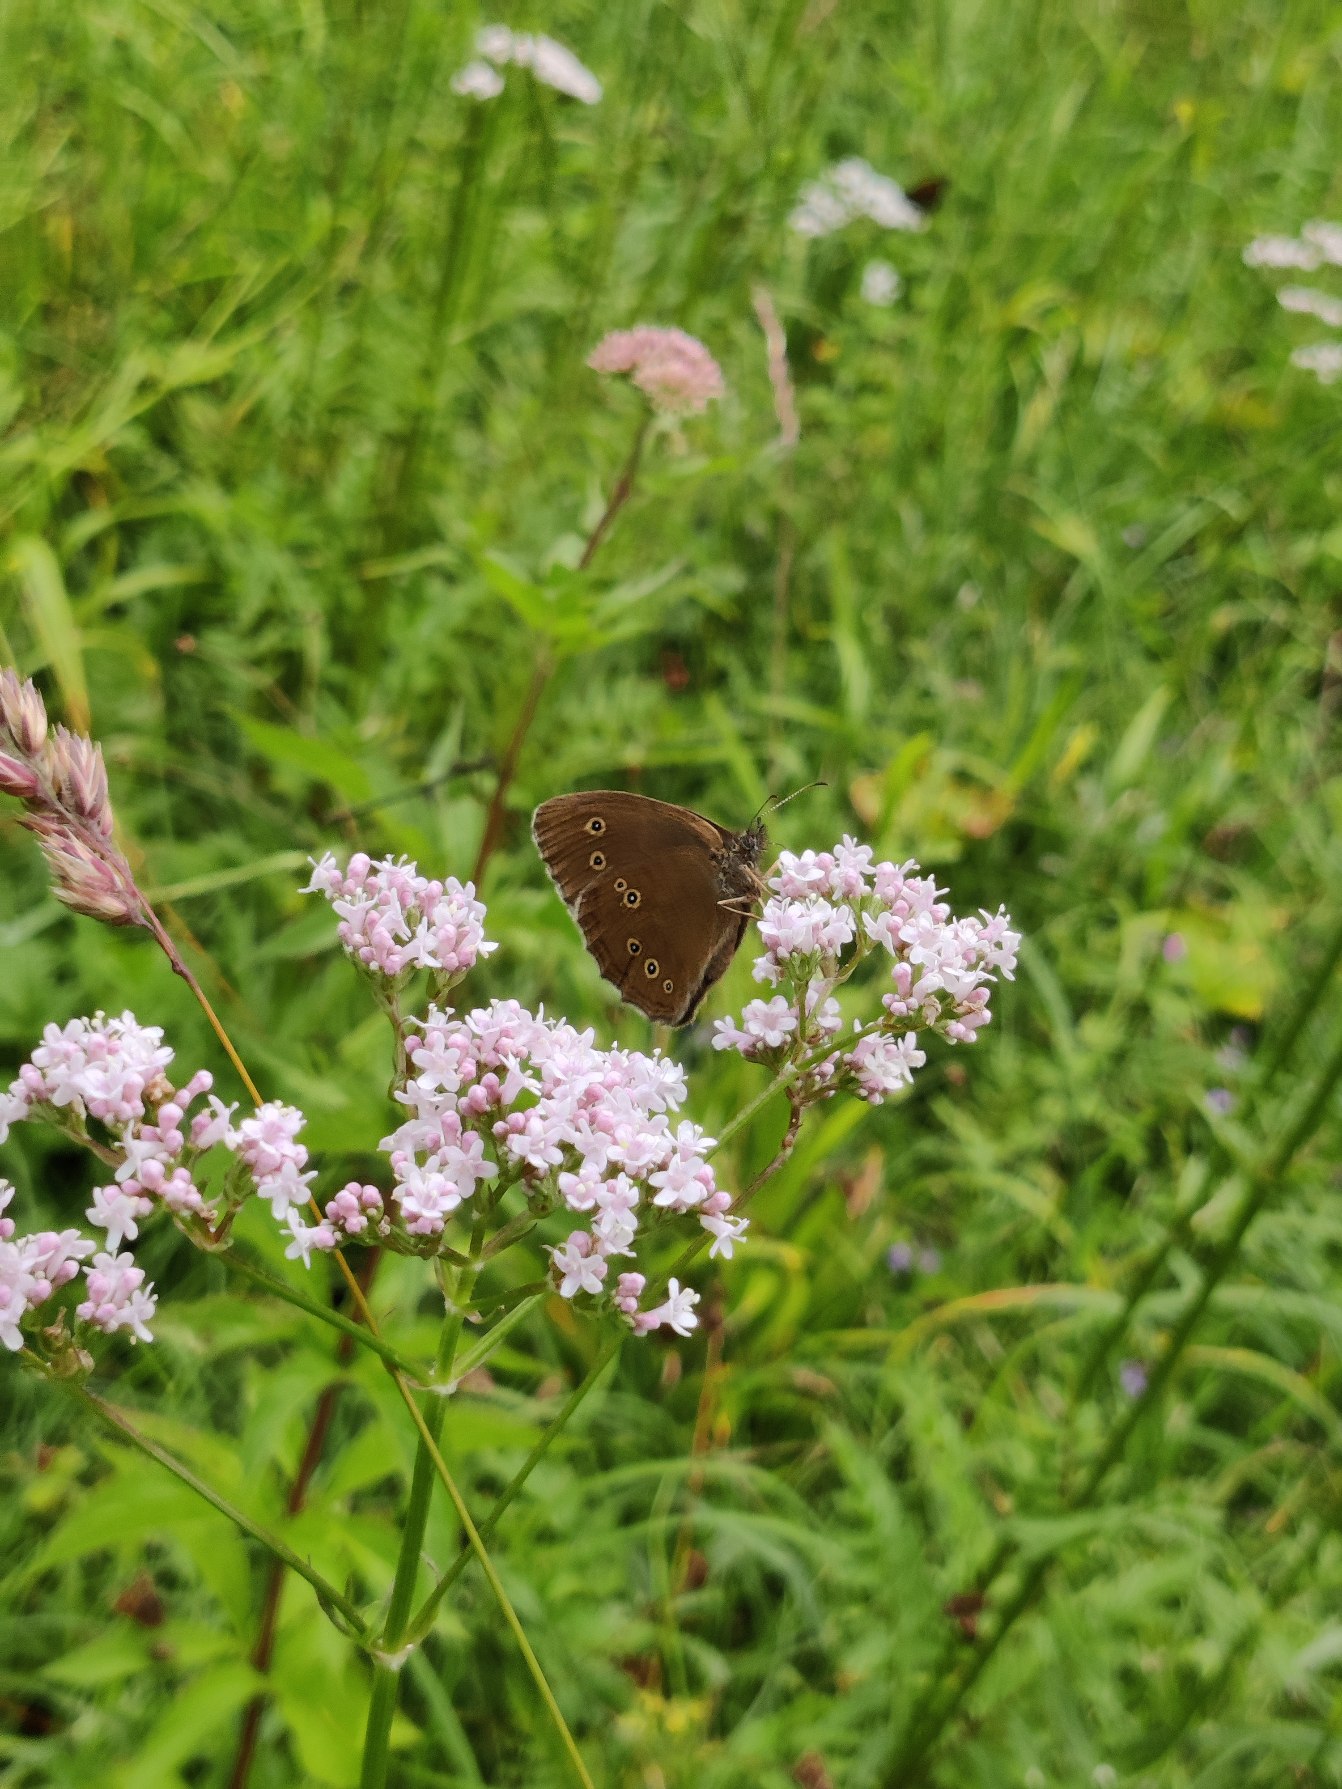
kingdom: Animalia
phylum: Arthropoda
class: Insecta
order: Lepidoptera
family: Nymphalidae
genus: Aphantopus
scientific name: Aphantopus hyperantus
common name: Engrandøje
